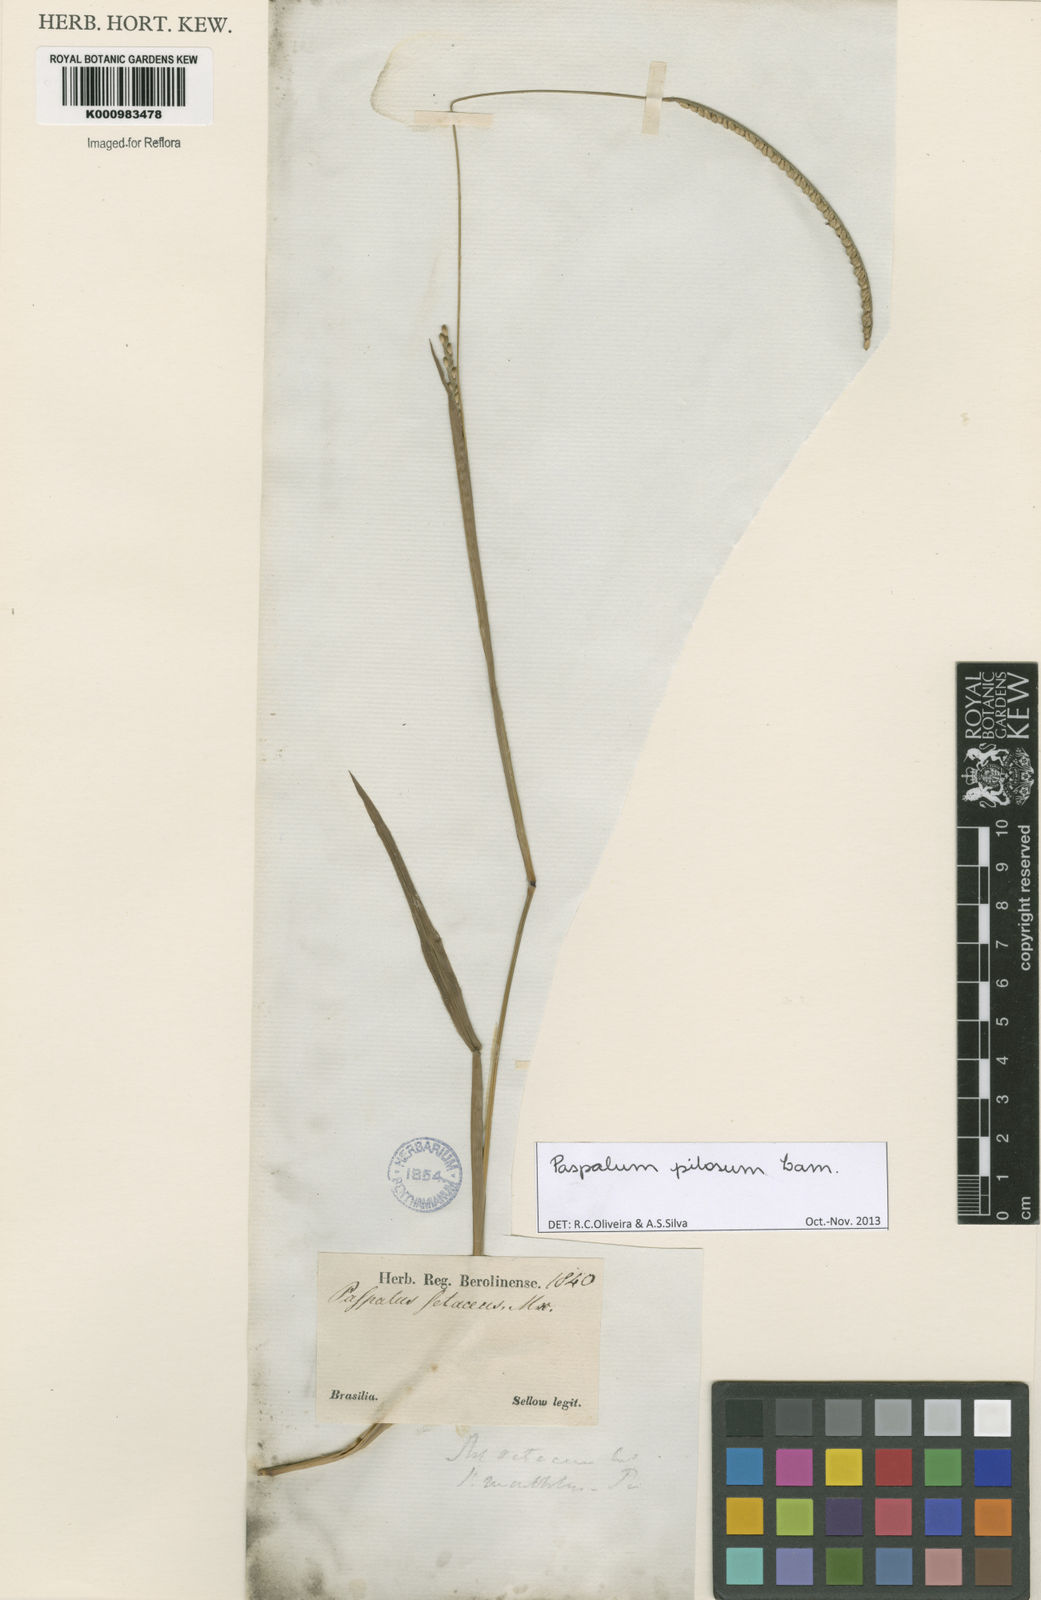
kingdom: Plantae
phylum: Tracheophyta
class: Liliopsida
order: Poales
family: Poaceae
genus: Paspalum
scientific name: Paspalum pilosum
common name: Crowngrass
